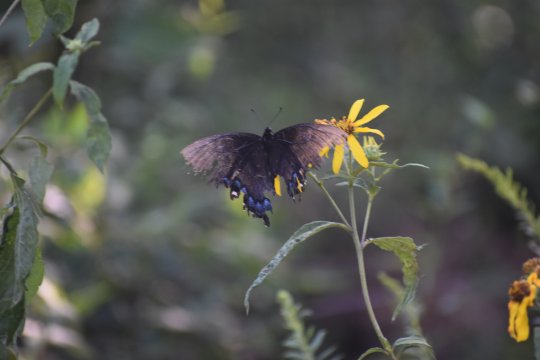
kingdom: Animalia
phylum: Arthropoda
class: Insecta
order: Lepidoptera
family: Papilionidae
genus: Pterourus
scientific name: Pterourus glaucus
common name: Eastern Tiger Swallowtail
